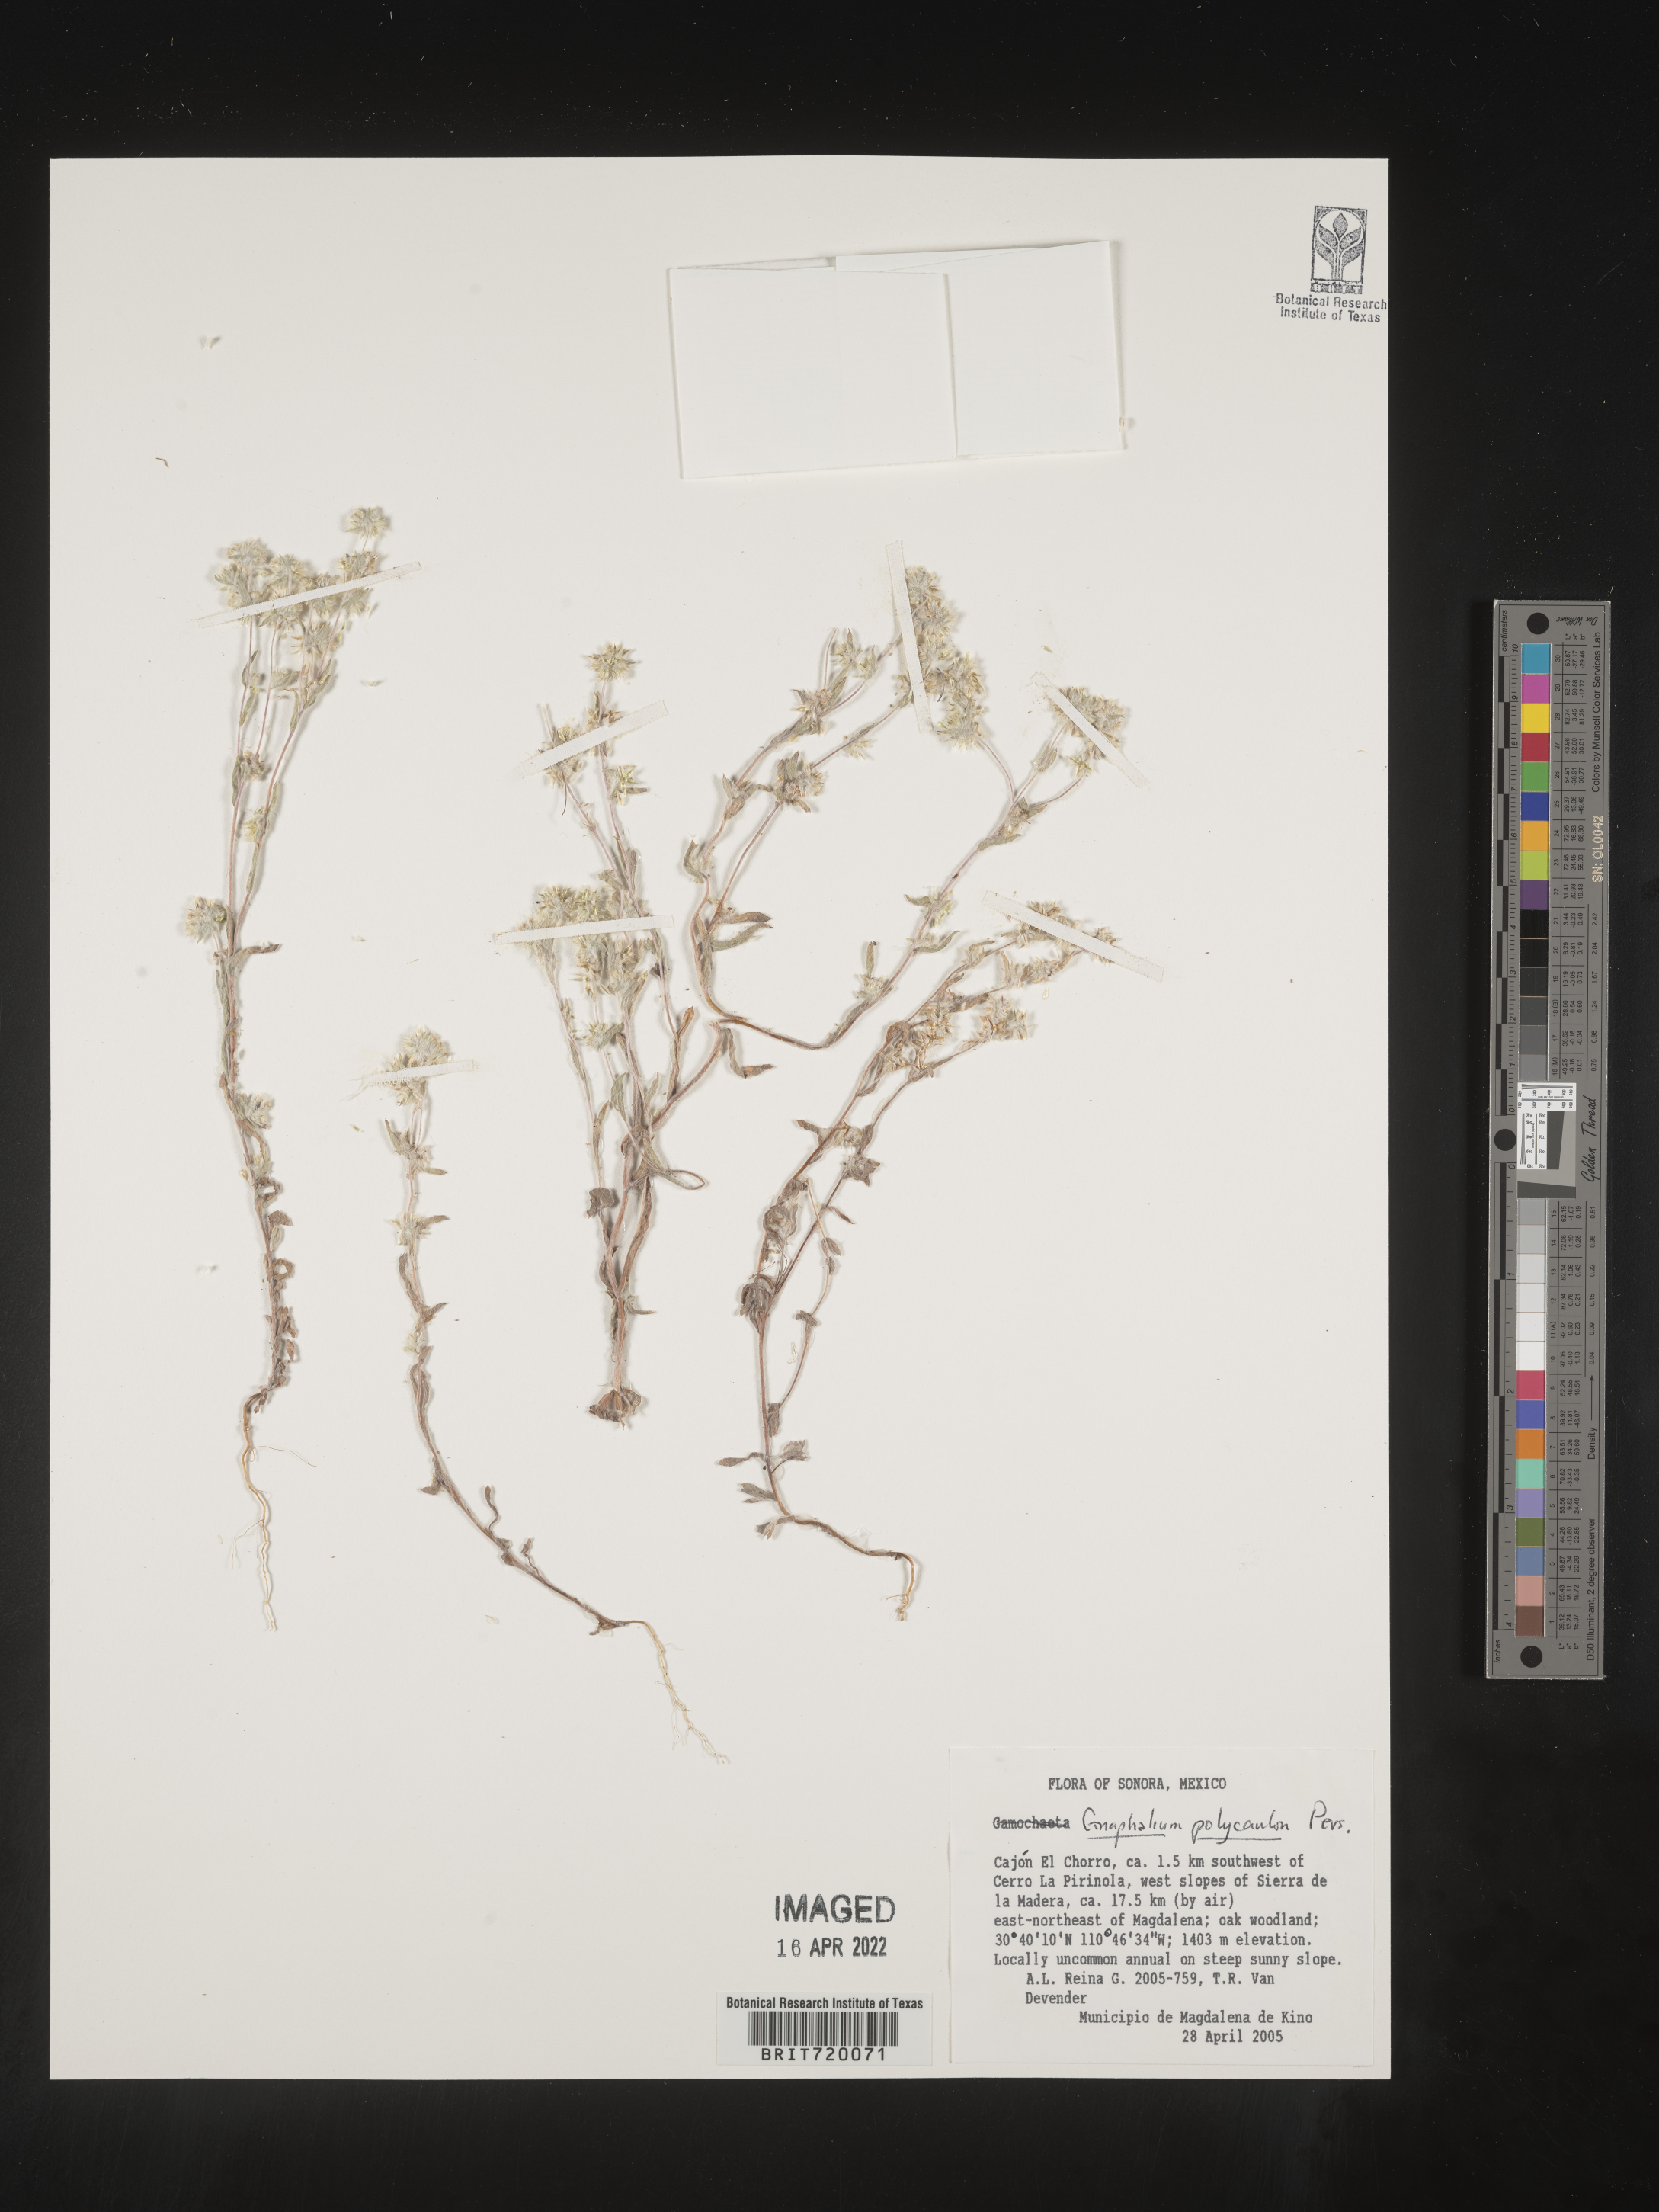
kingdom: Plantae
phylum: Tracheophyta
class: Magnoliopsida
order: Asterales
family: Asteraceae
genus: Gnaphalium
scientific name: Gnaphalium
